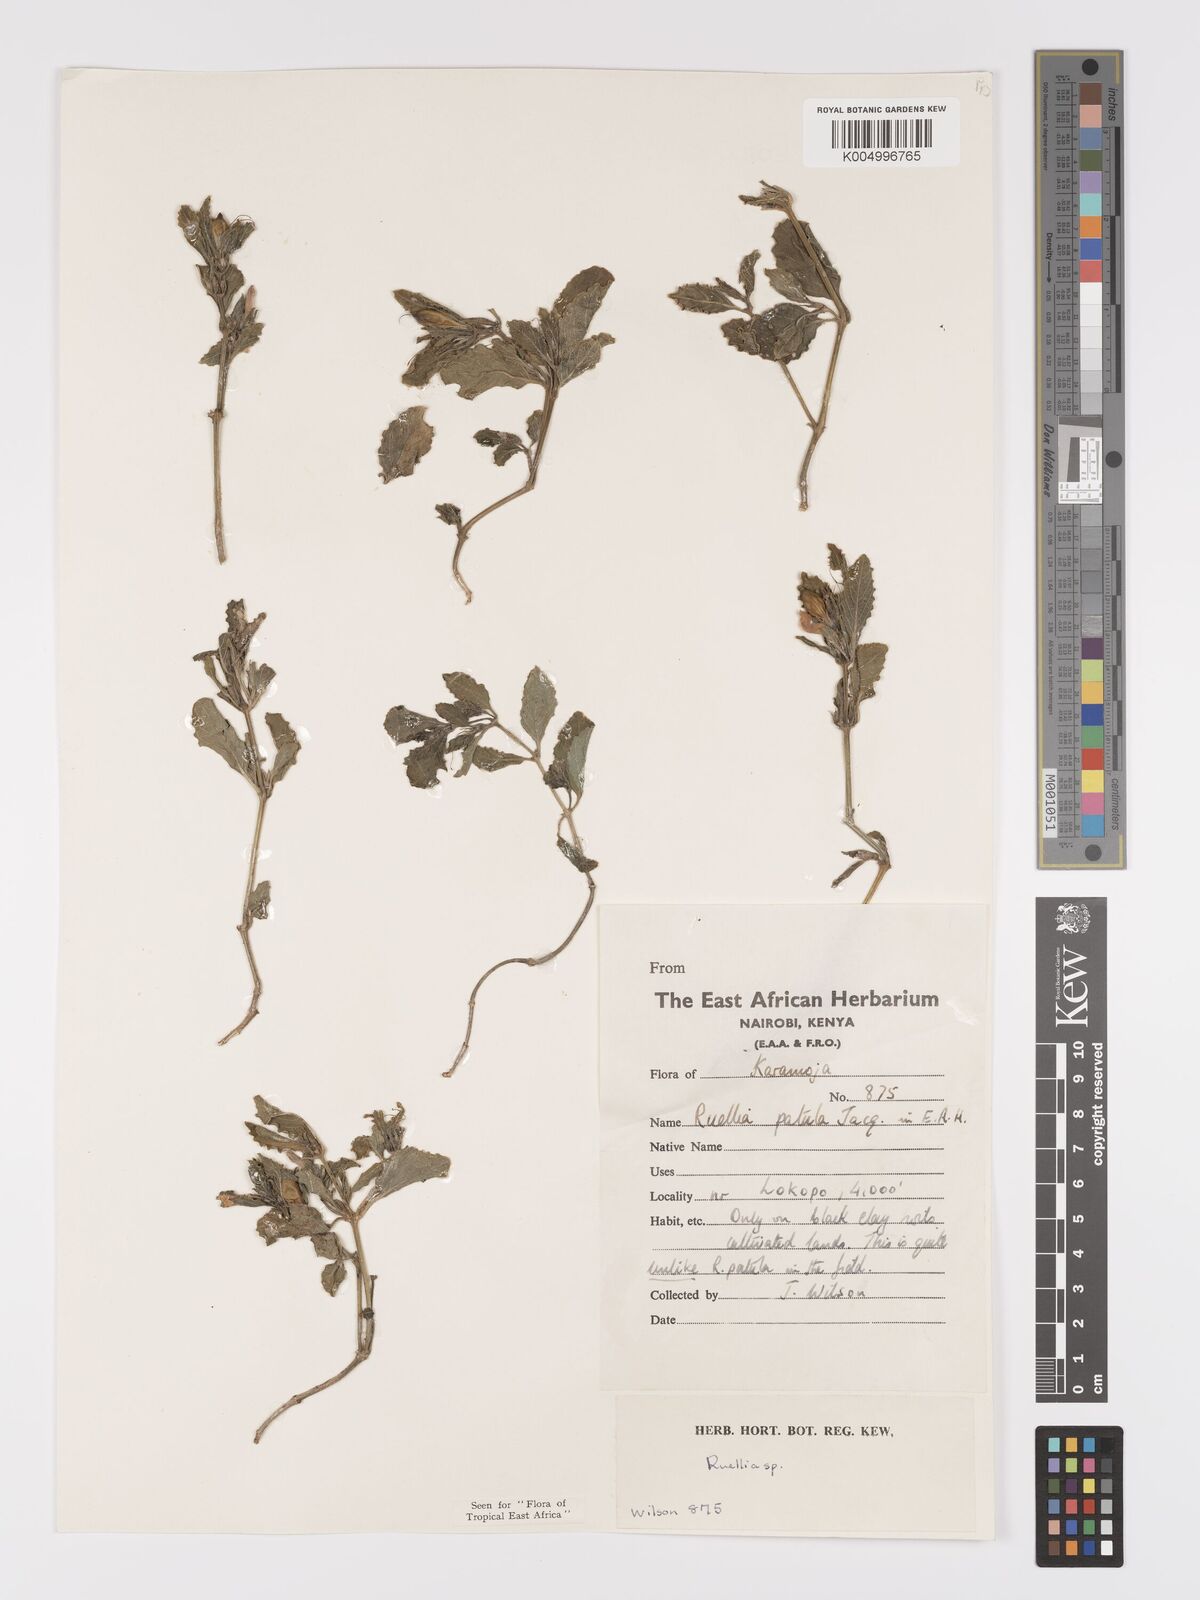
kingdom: Plantae
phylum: Tracheophyta
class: Magnoliopsida
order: Lamiales
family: Acanthaceae
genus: Ruellia
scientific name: Ruellia patula
